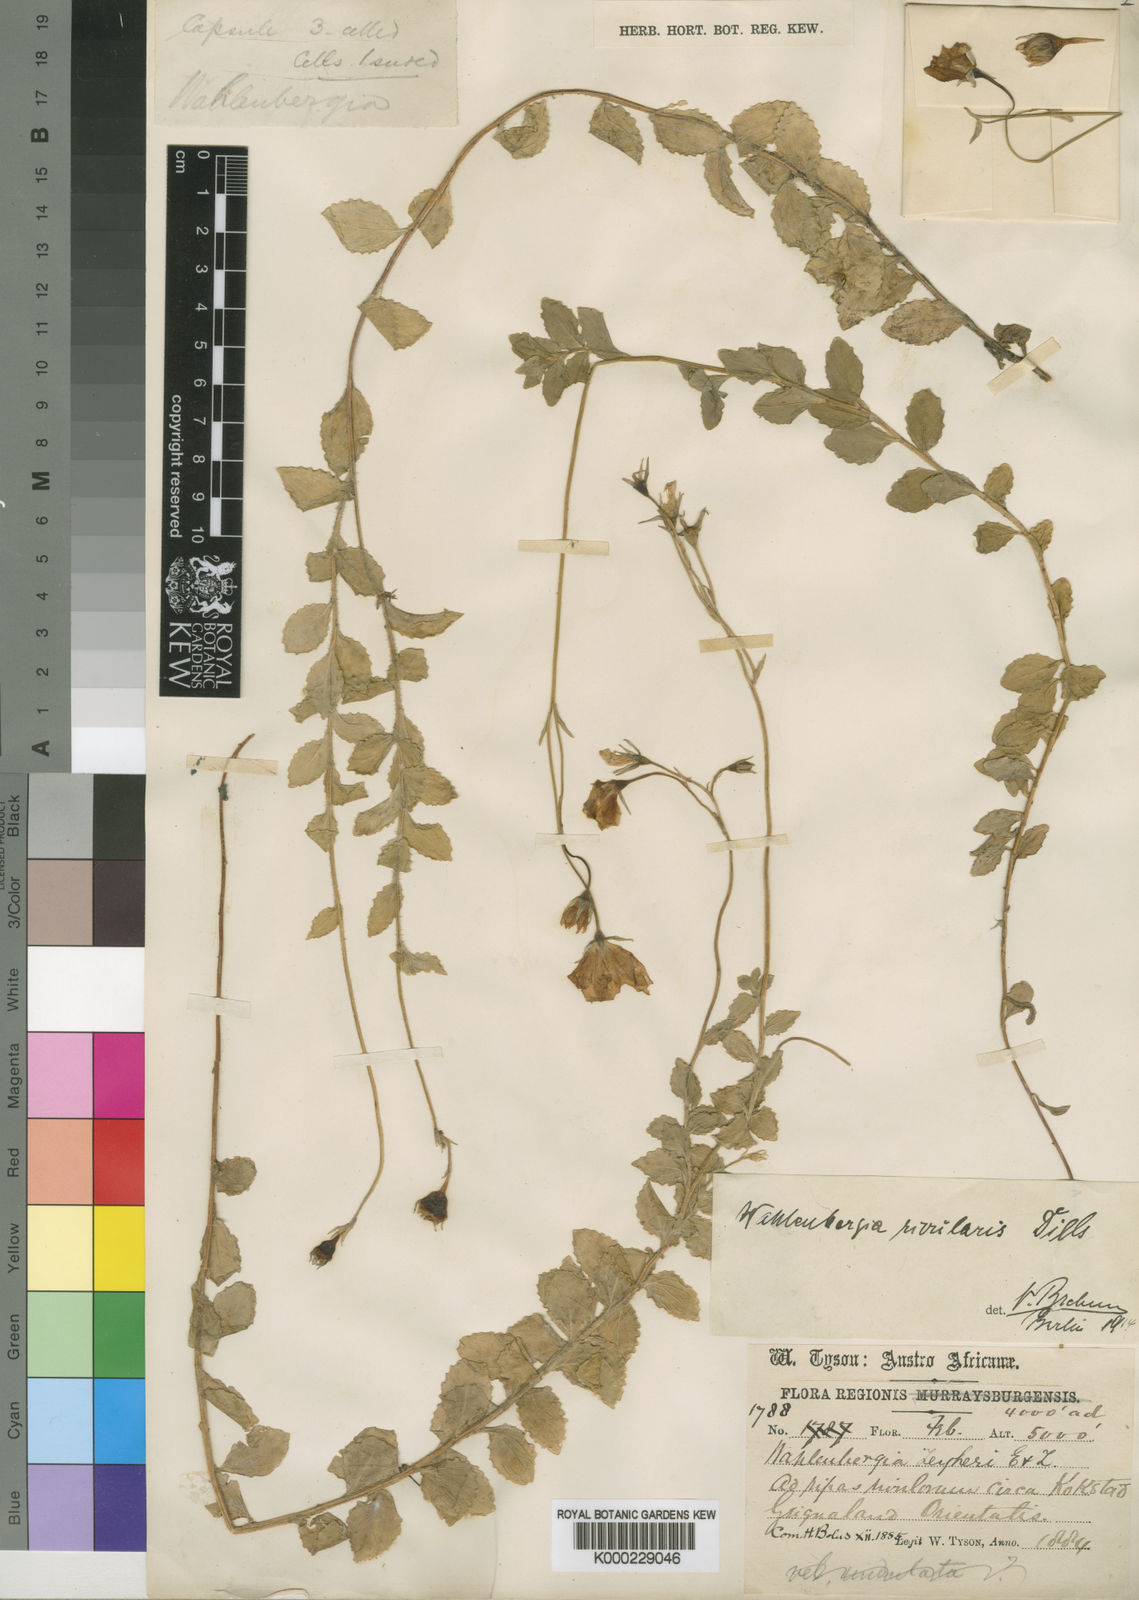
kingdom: Plantae
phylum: Tracheophyta
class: Magnoliopsida
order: Asterales
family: Campanulaceae
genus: Wahlenbergia
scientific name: Wahlenbergia rivularis
